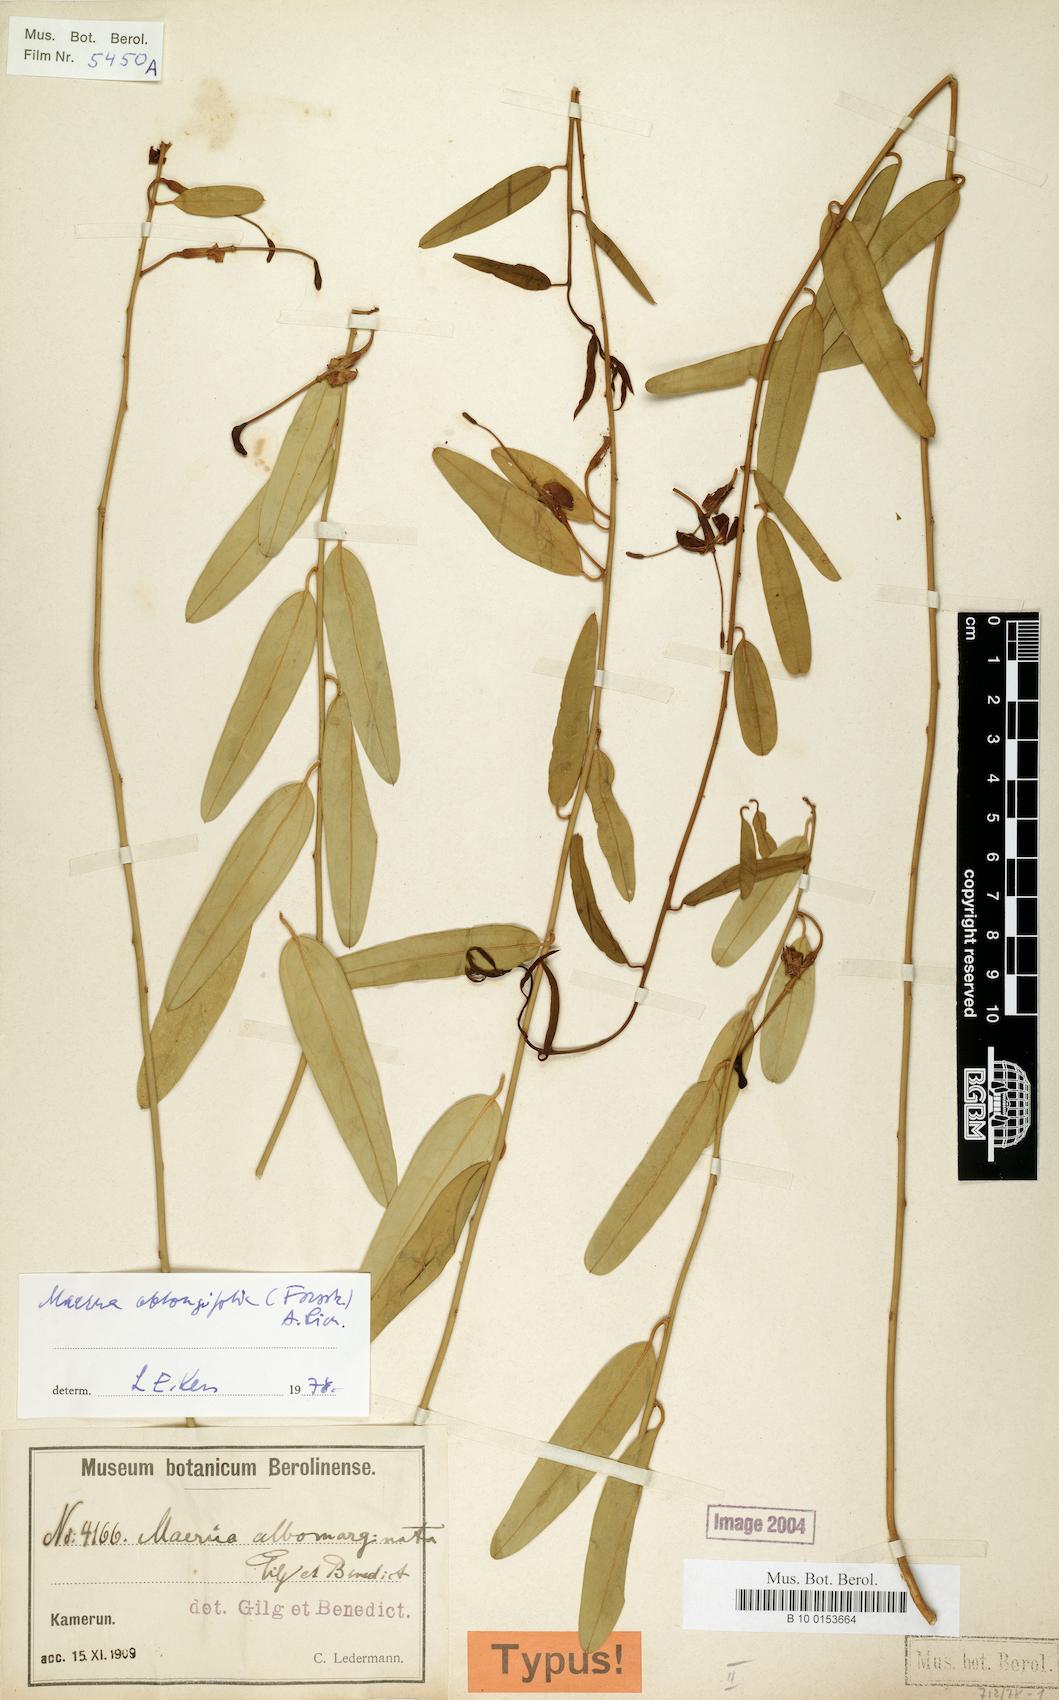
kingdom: Plantae
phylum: Tracheophyta
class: Magnoliopsida
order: Brassicales
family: Capparaceae
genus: Maerua
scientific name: Maerua oblongifolia
